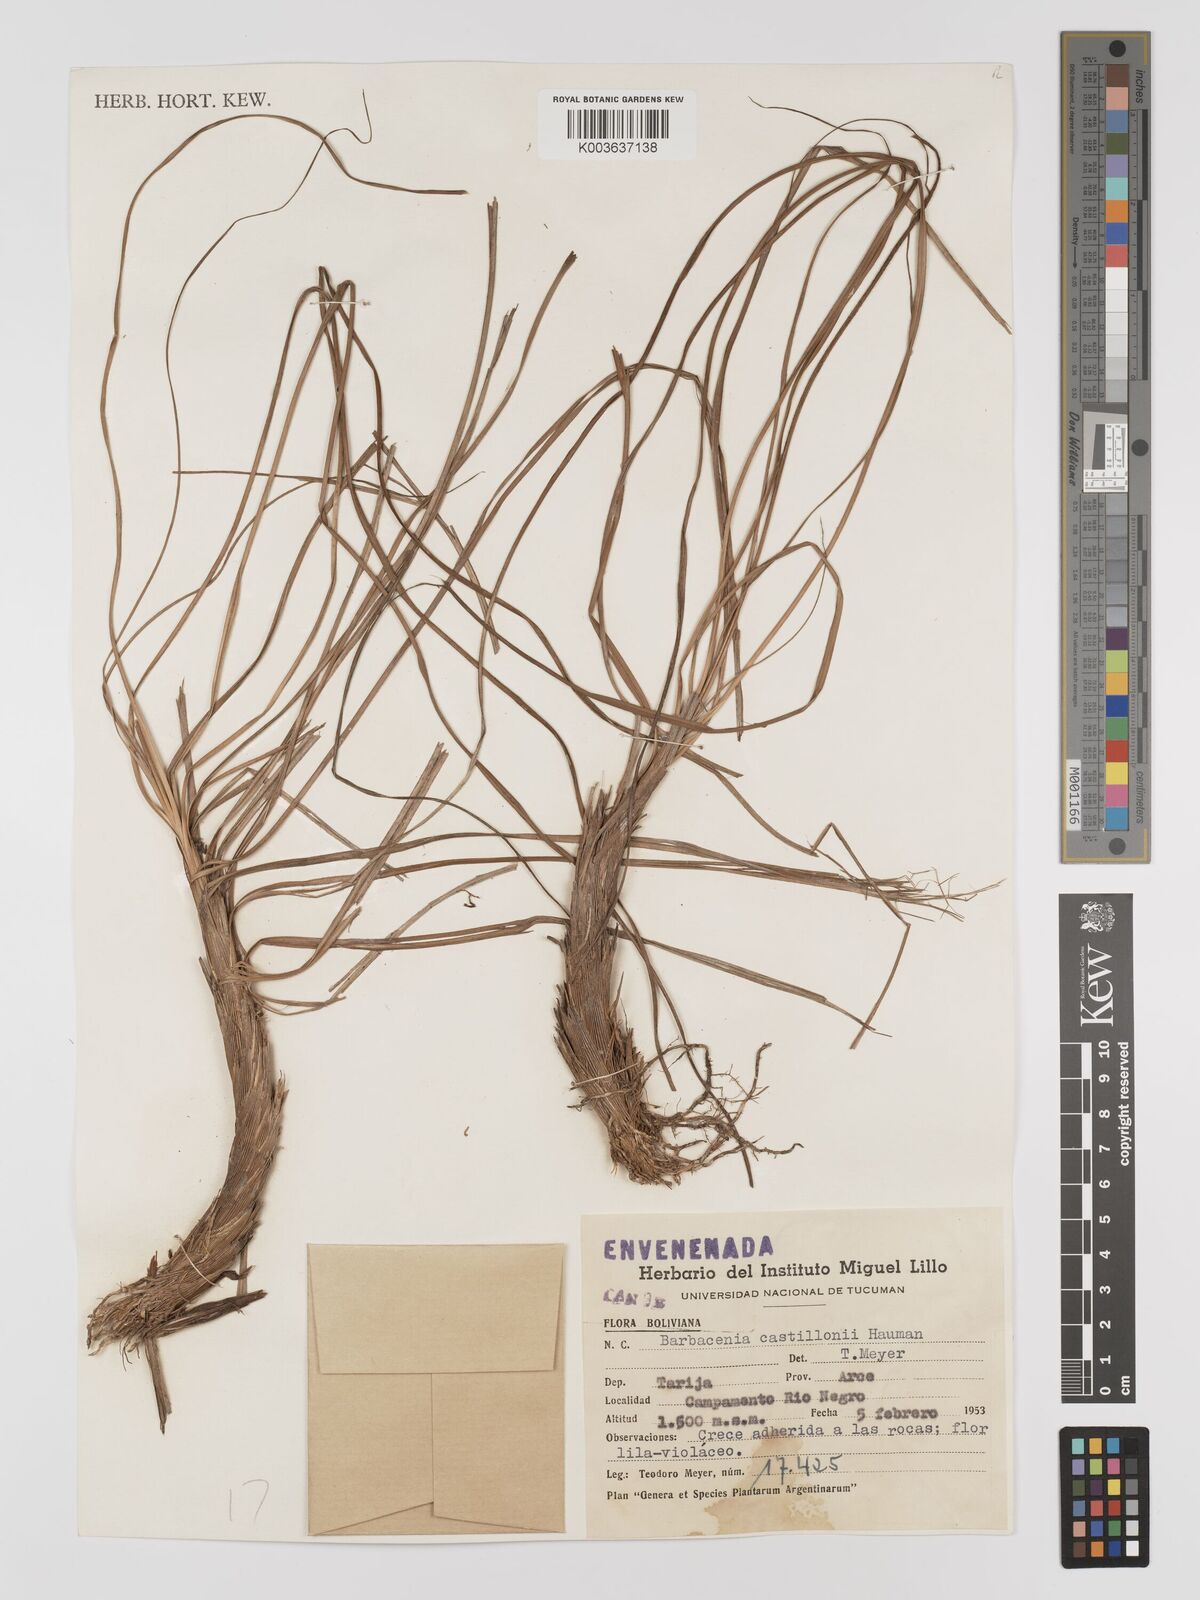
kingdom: Plantae
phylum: Tracheophyta
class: Liliopsida
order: Pandanales
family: Velloziaceae
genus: Barbaceniopsis
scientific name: Barbaceniopsis boliviensis
